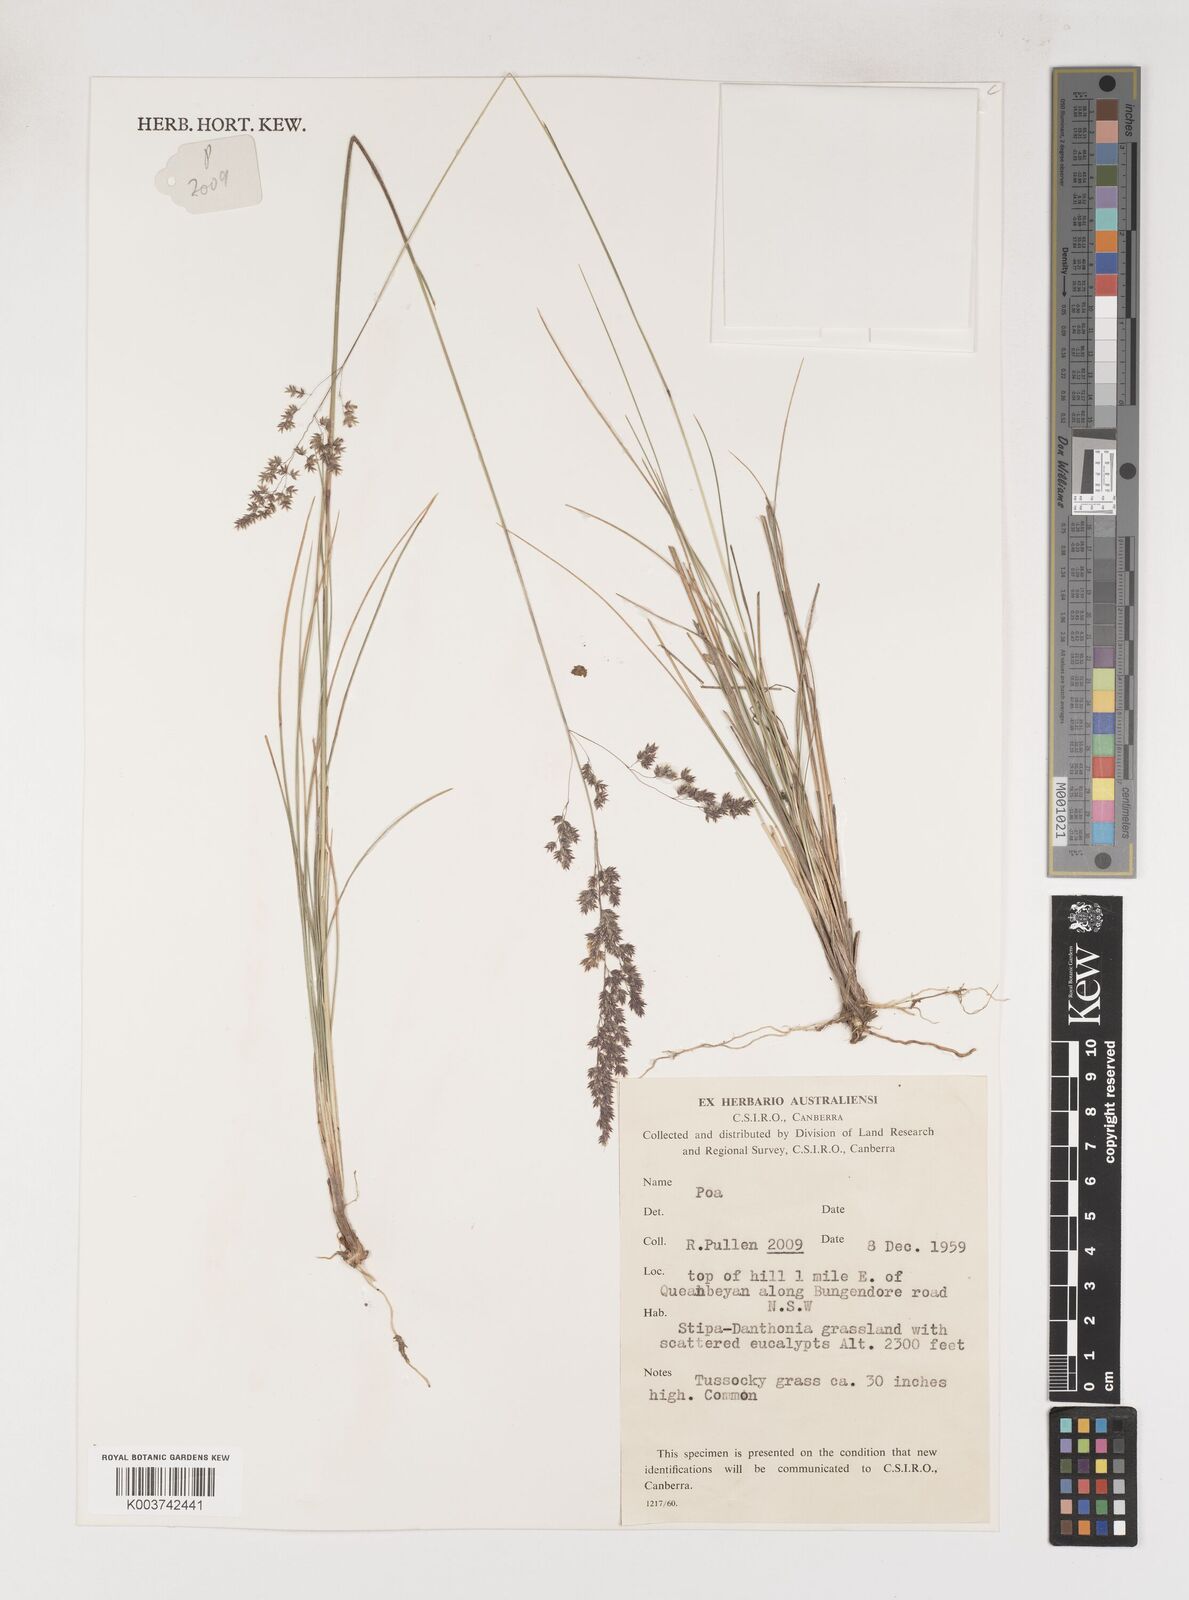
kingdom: Plantae
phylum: Tracheophyta
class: Liliopsida
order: Poales
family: Poaceae
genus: Poa
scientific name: Poa
